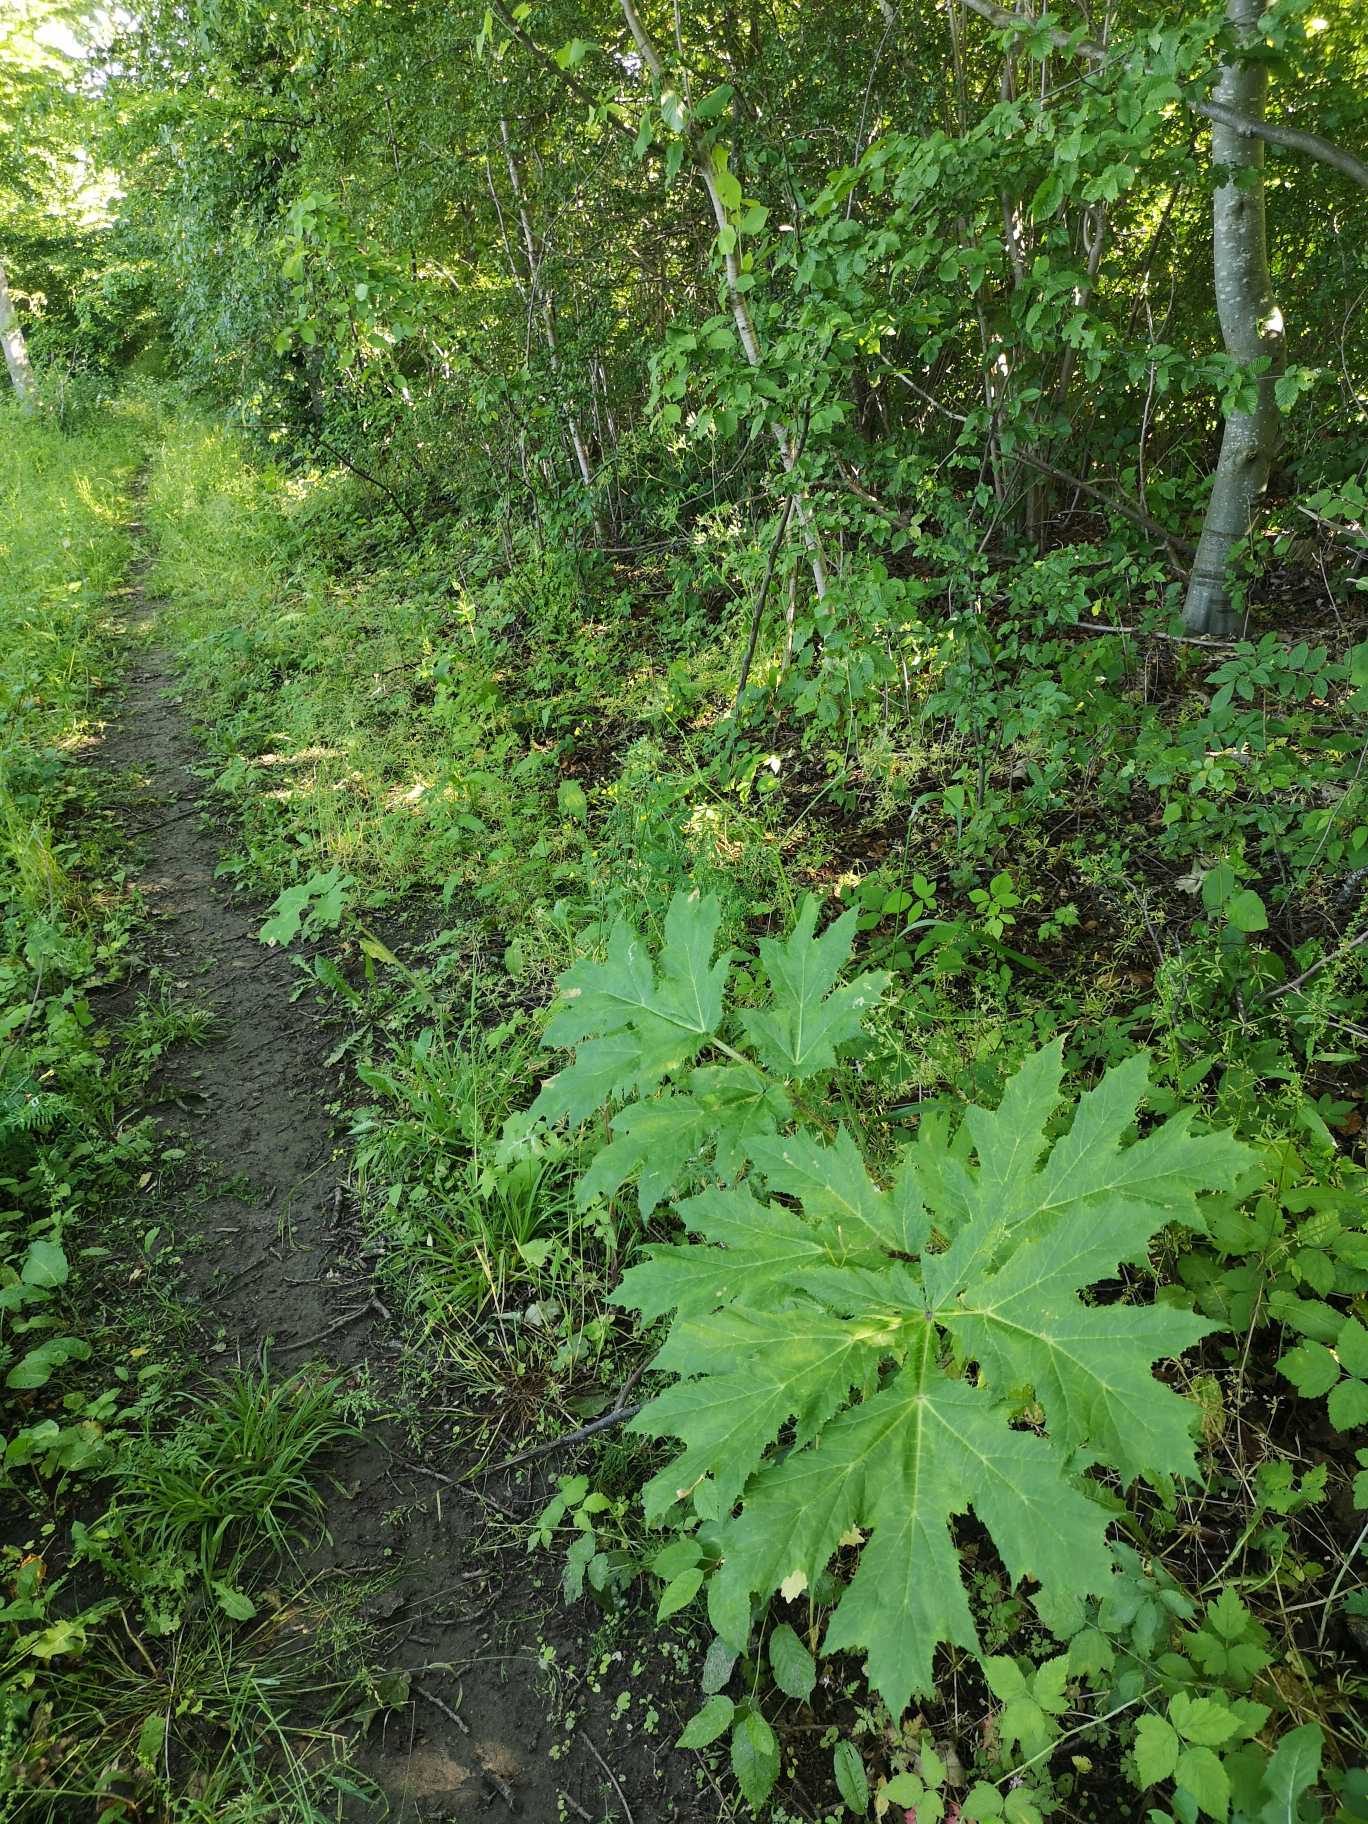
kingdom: Plantae
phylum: Tracheophyta
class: Magnoliopsida
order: Apiales
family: Apiaceae
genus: Heracleum
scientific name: Heracleum mantegazzianum
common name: Kæmpe-bjørneklo
